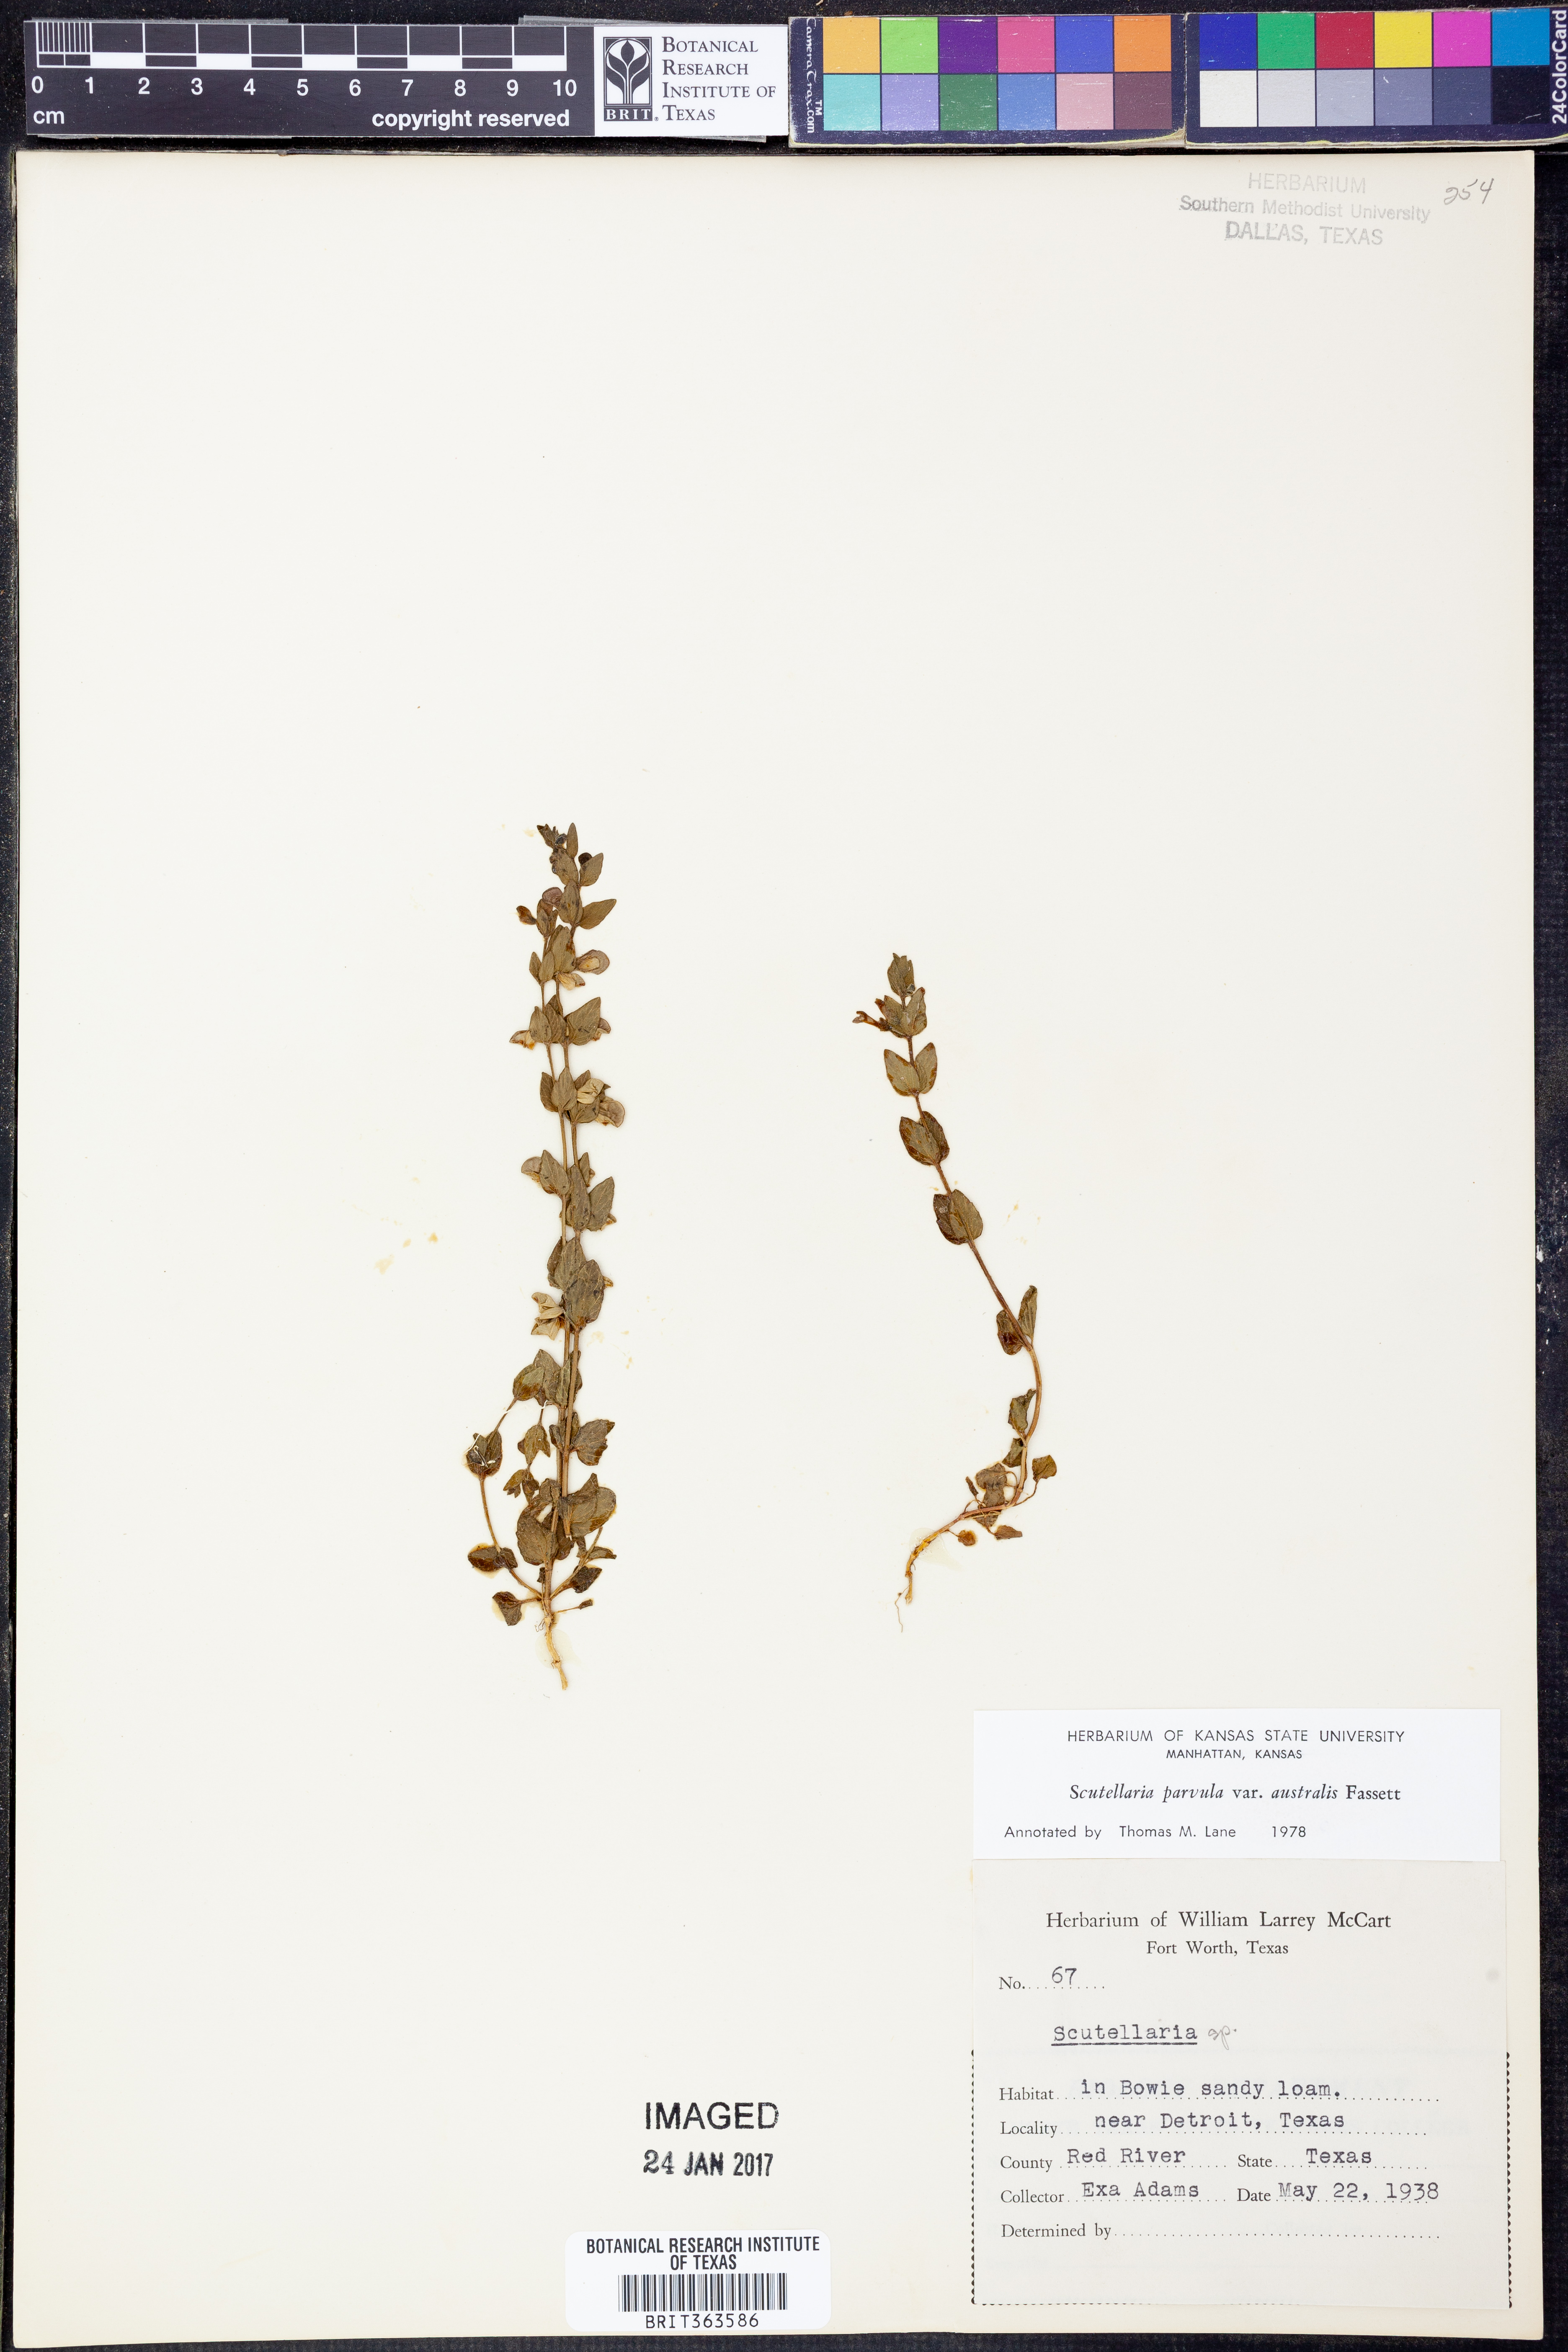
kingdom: Plantae
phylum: Tracheophyta
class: Magnoliopsida
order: Lamiales
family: Lamiaceae
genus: Scutellaria
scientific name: Scutellaria parvula
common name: Little scullcap
